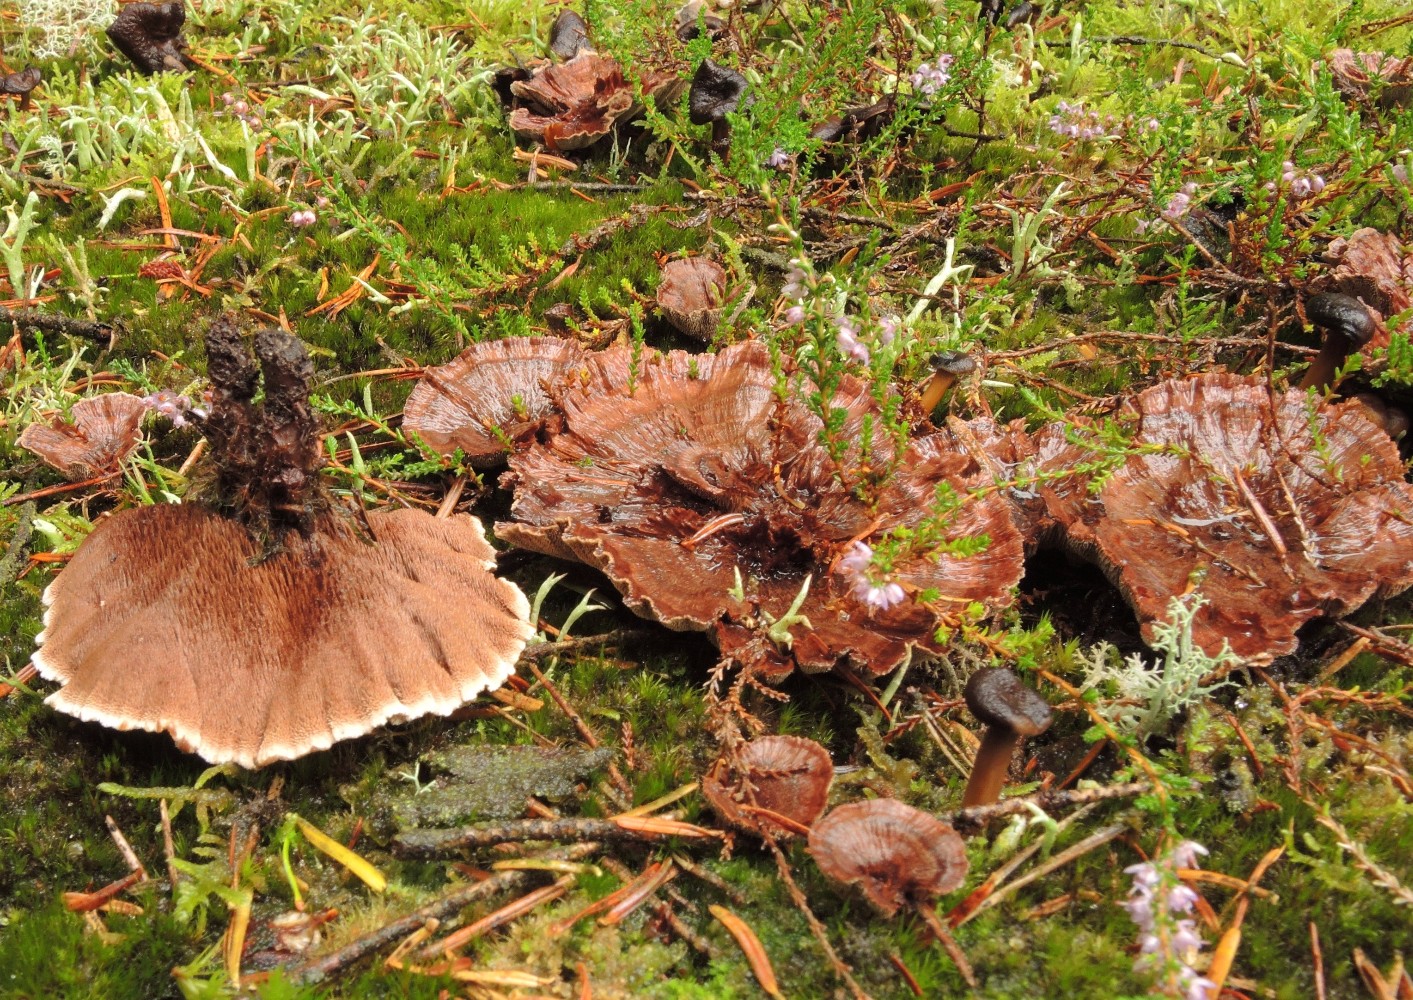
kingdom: Fungi
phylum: Basidiomycota
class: Agaricomycetes
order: Thelephorales
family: Bankeraceae
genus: Hydnellum
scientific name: Hydnellum concrescens
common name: bæltet korkpigsvamp
